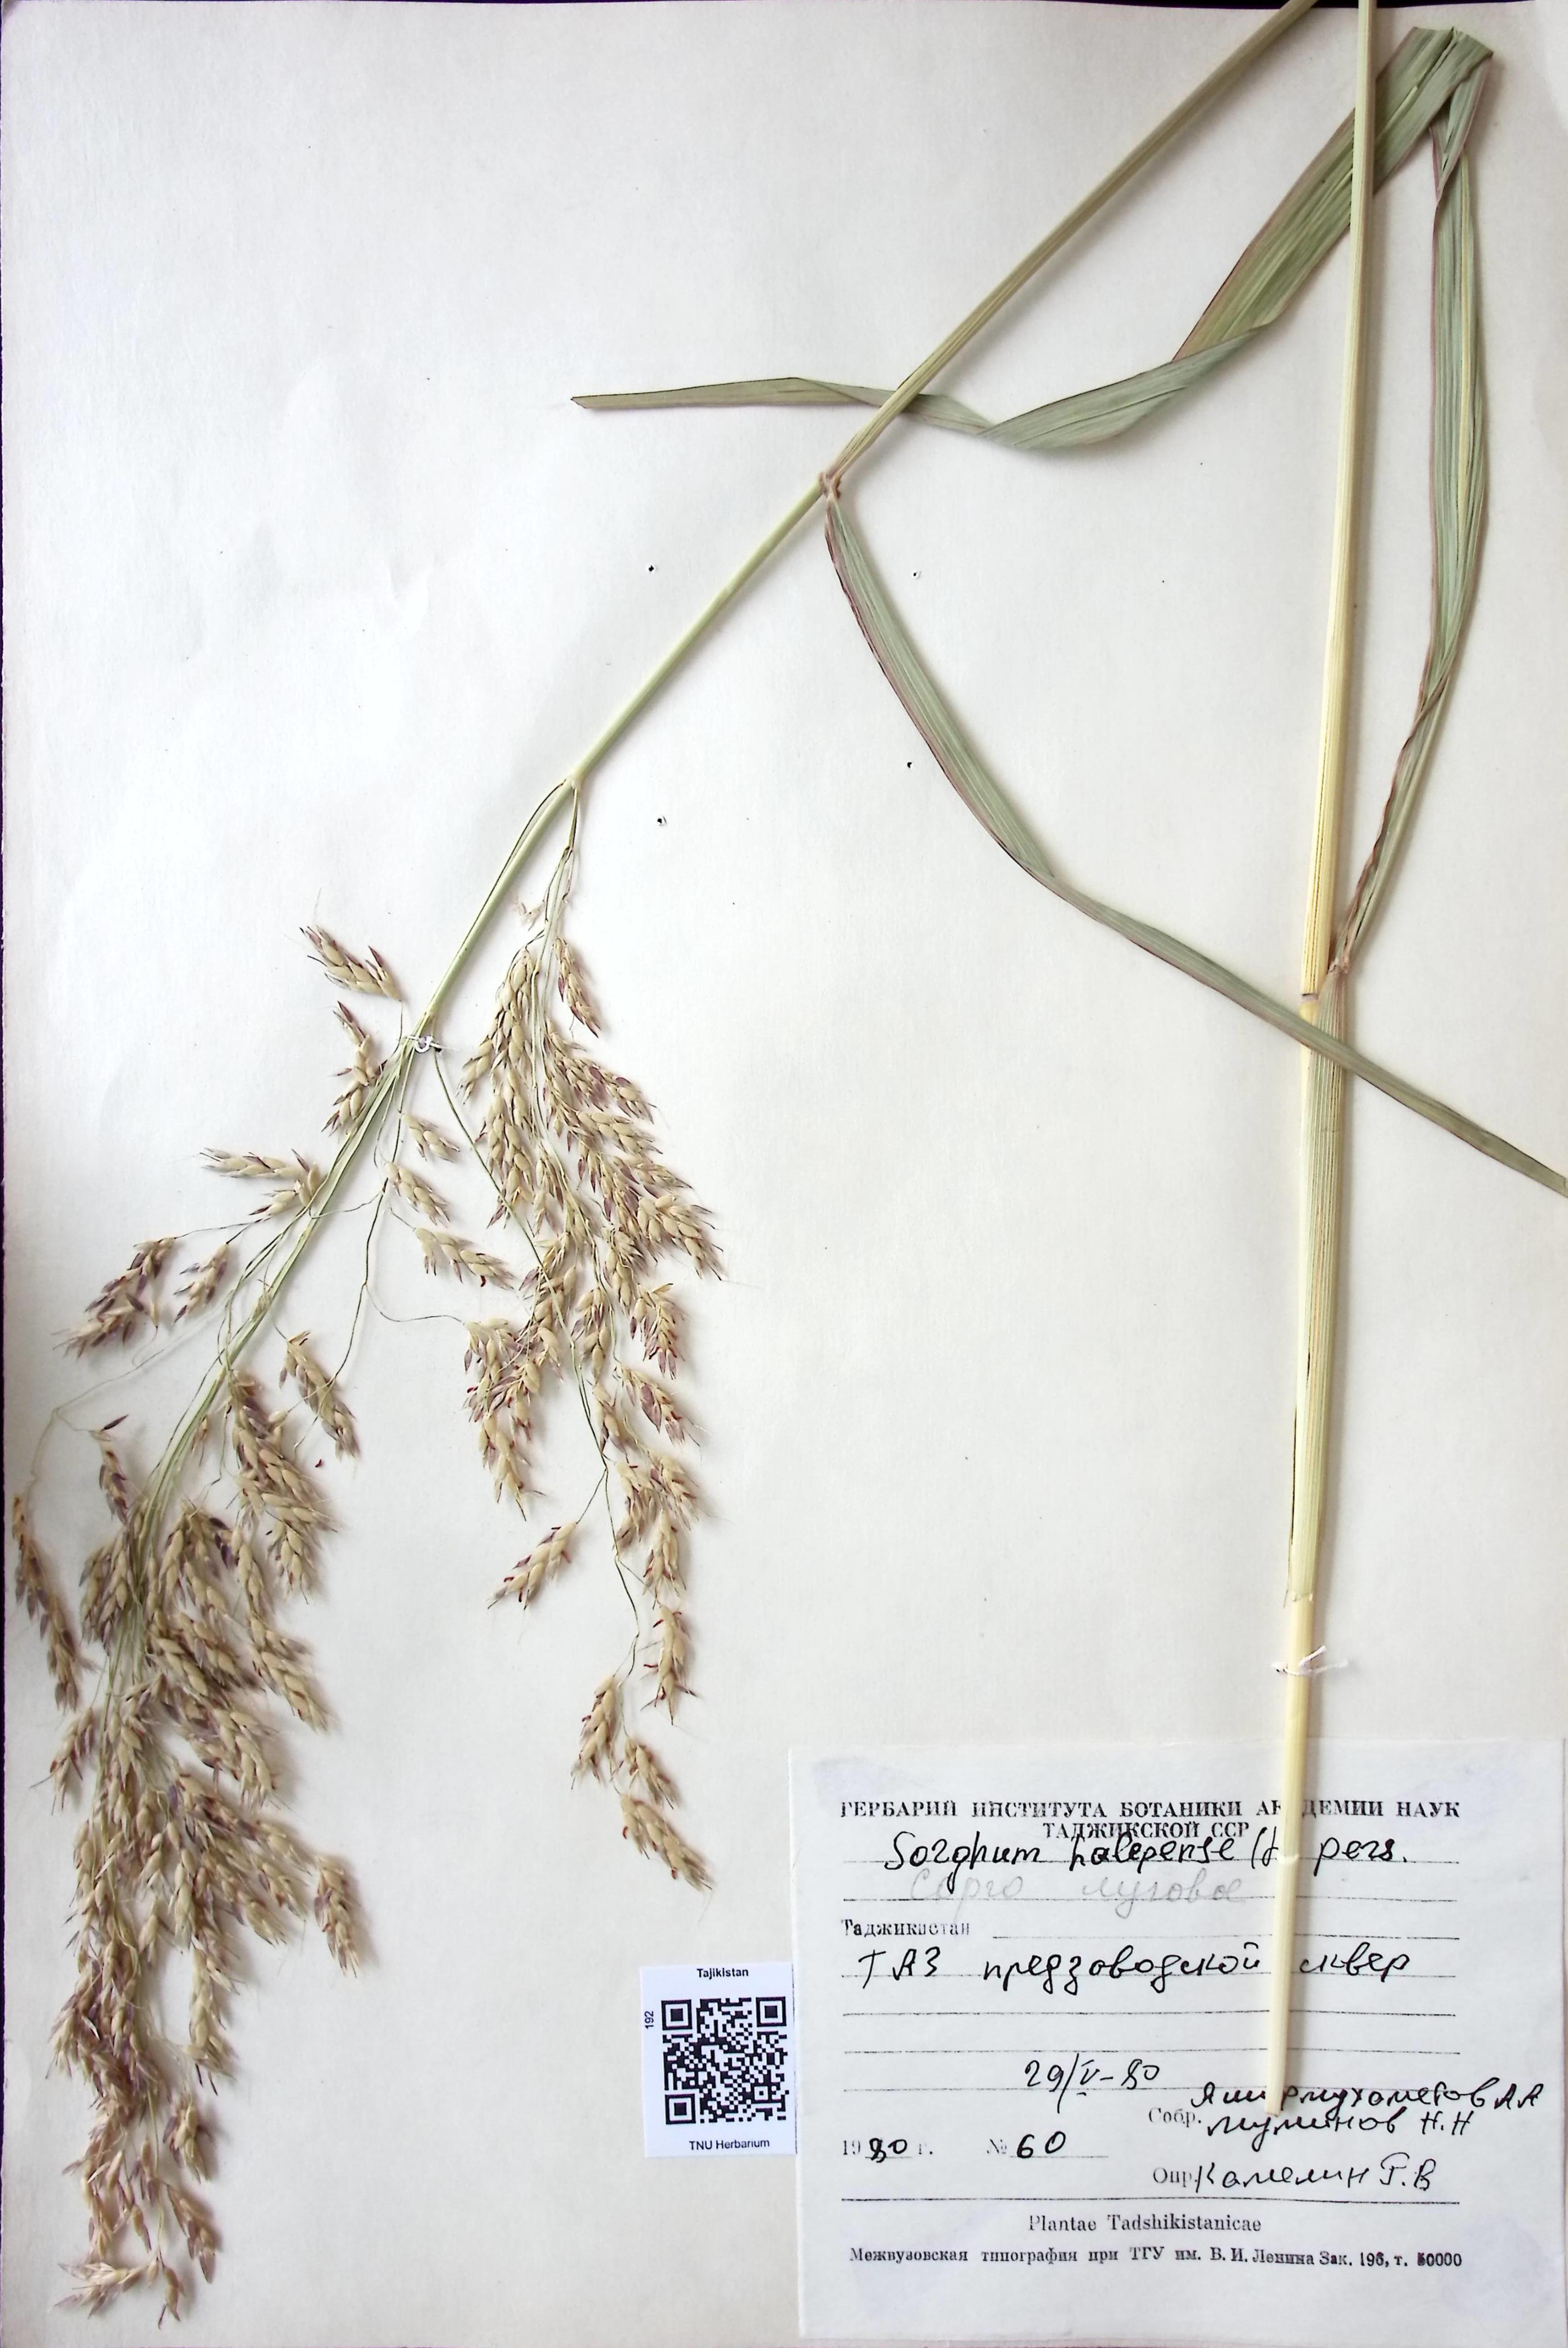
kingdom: Plantae
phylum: Tracheophyta
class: Liliopsida
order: Poales
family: Poaceae
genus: Sorghum
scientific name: Sorghum halepense
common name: Johnson-grass
